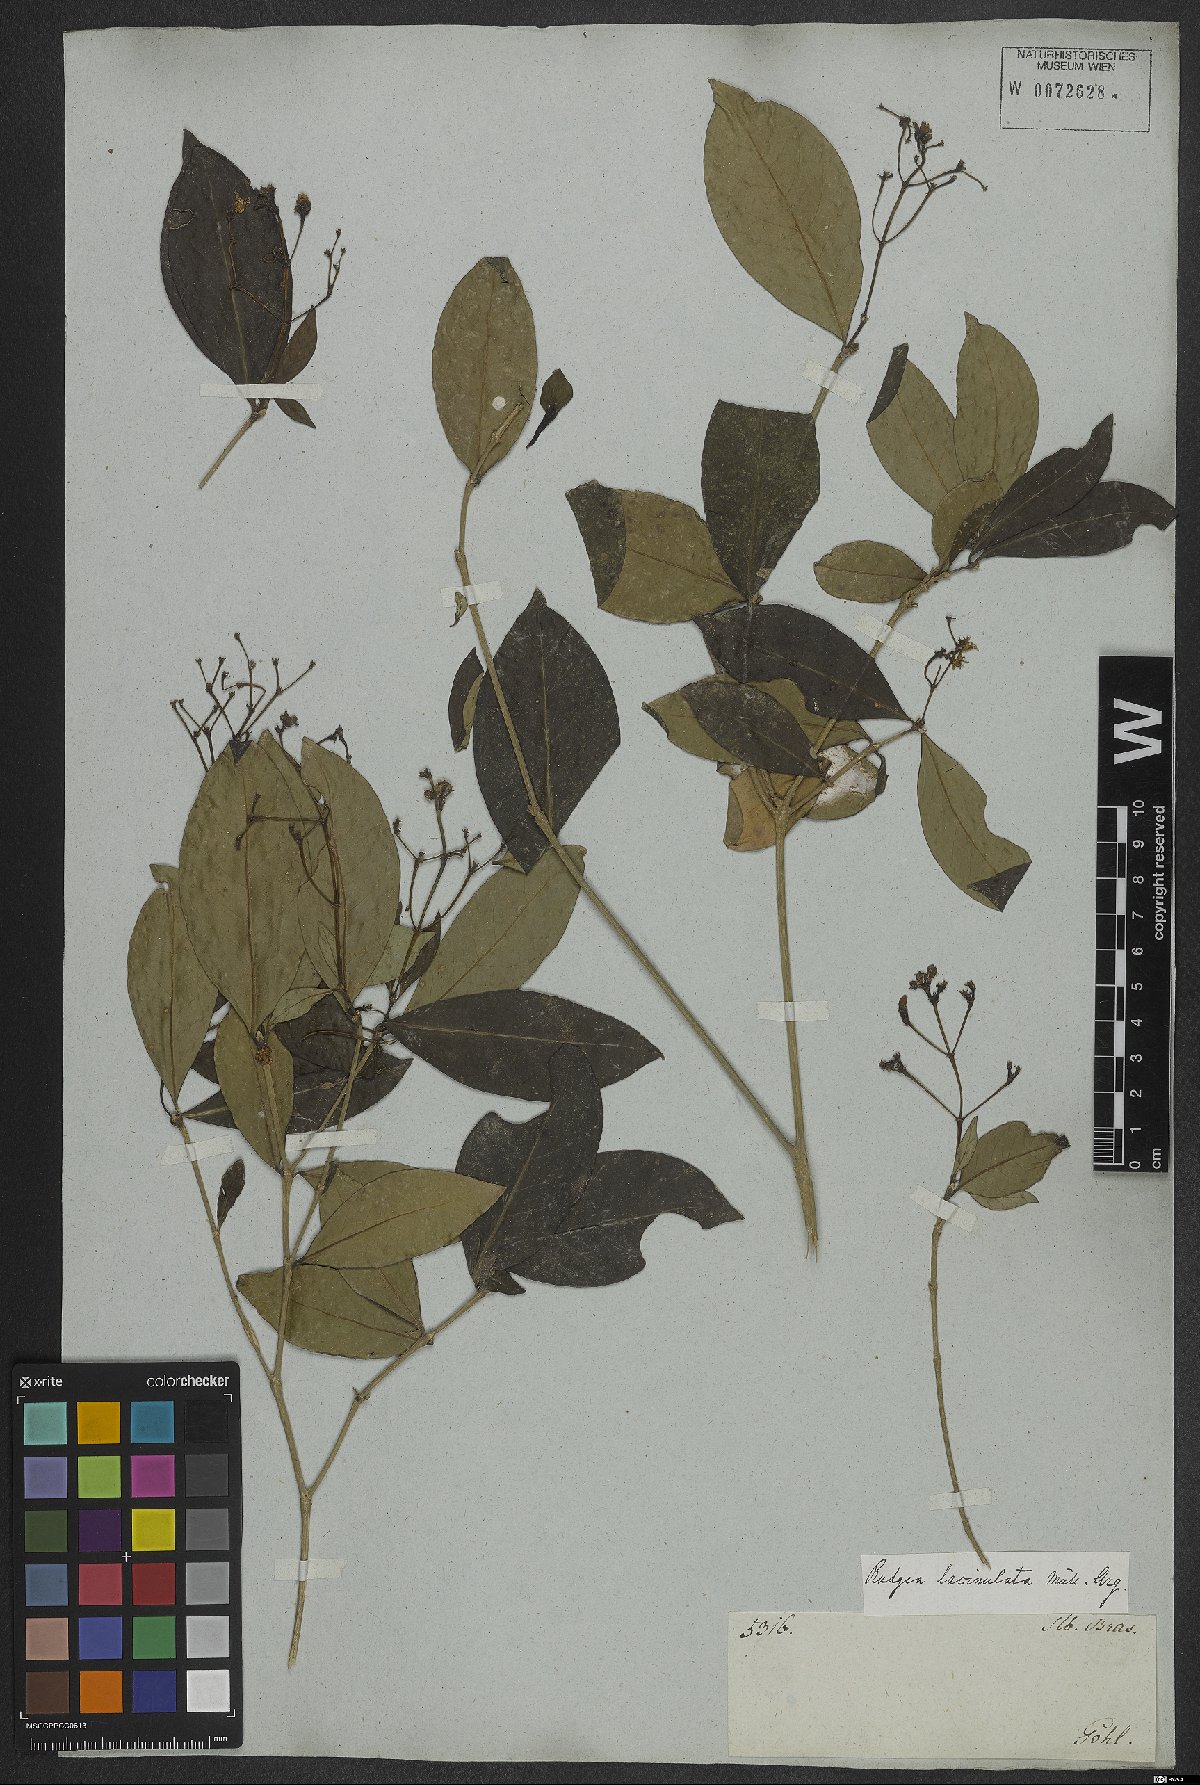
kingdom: Plantae
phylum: Tracheophyta
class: Magnoliopsida
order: Gentianales
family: Rubiaceae
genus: Rudgea
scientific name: Rudgea minor
